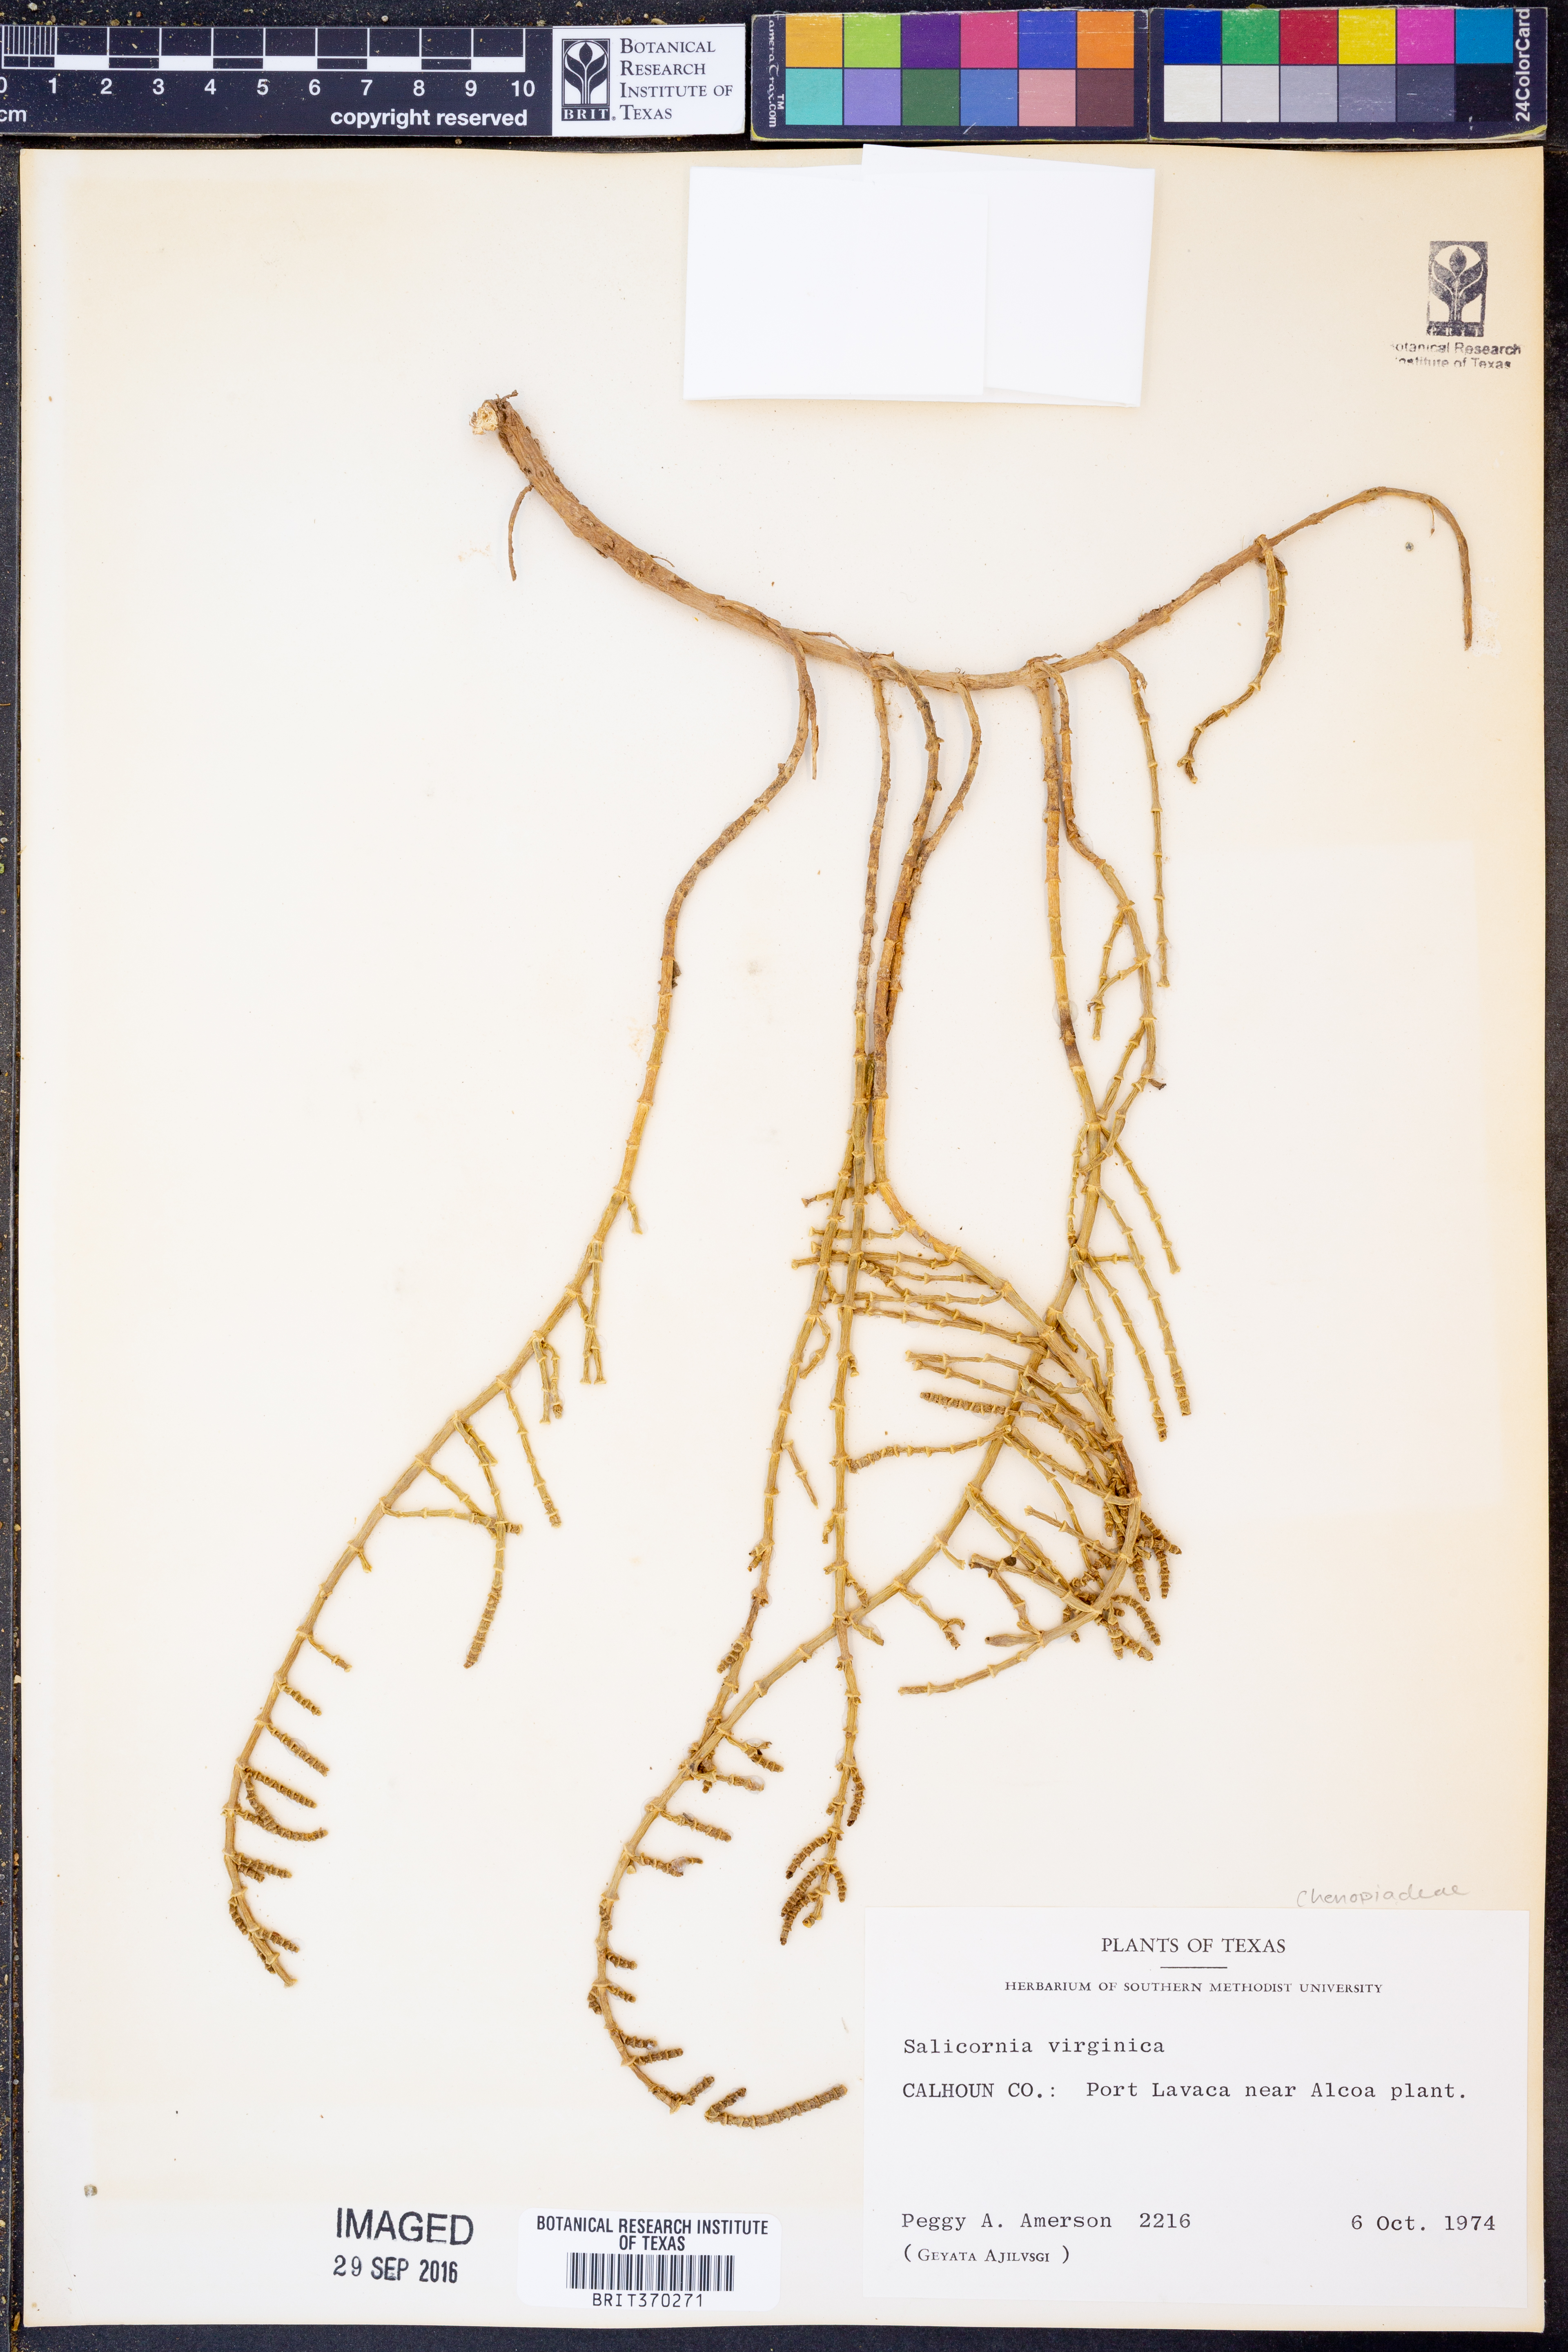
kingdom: Plantae
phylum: Tracheophyta
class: Magnoliopsida
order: Caryophyllales
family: Amaranthaceae
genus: Salicornia
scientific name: Salicornia virginica
